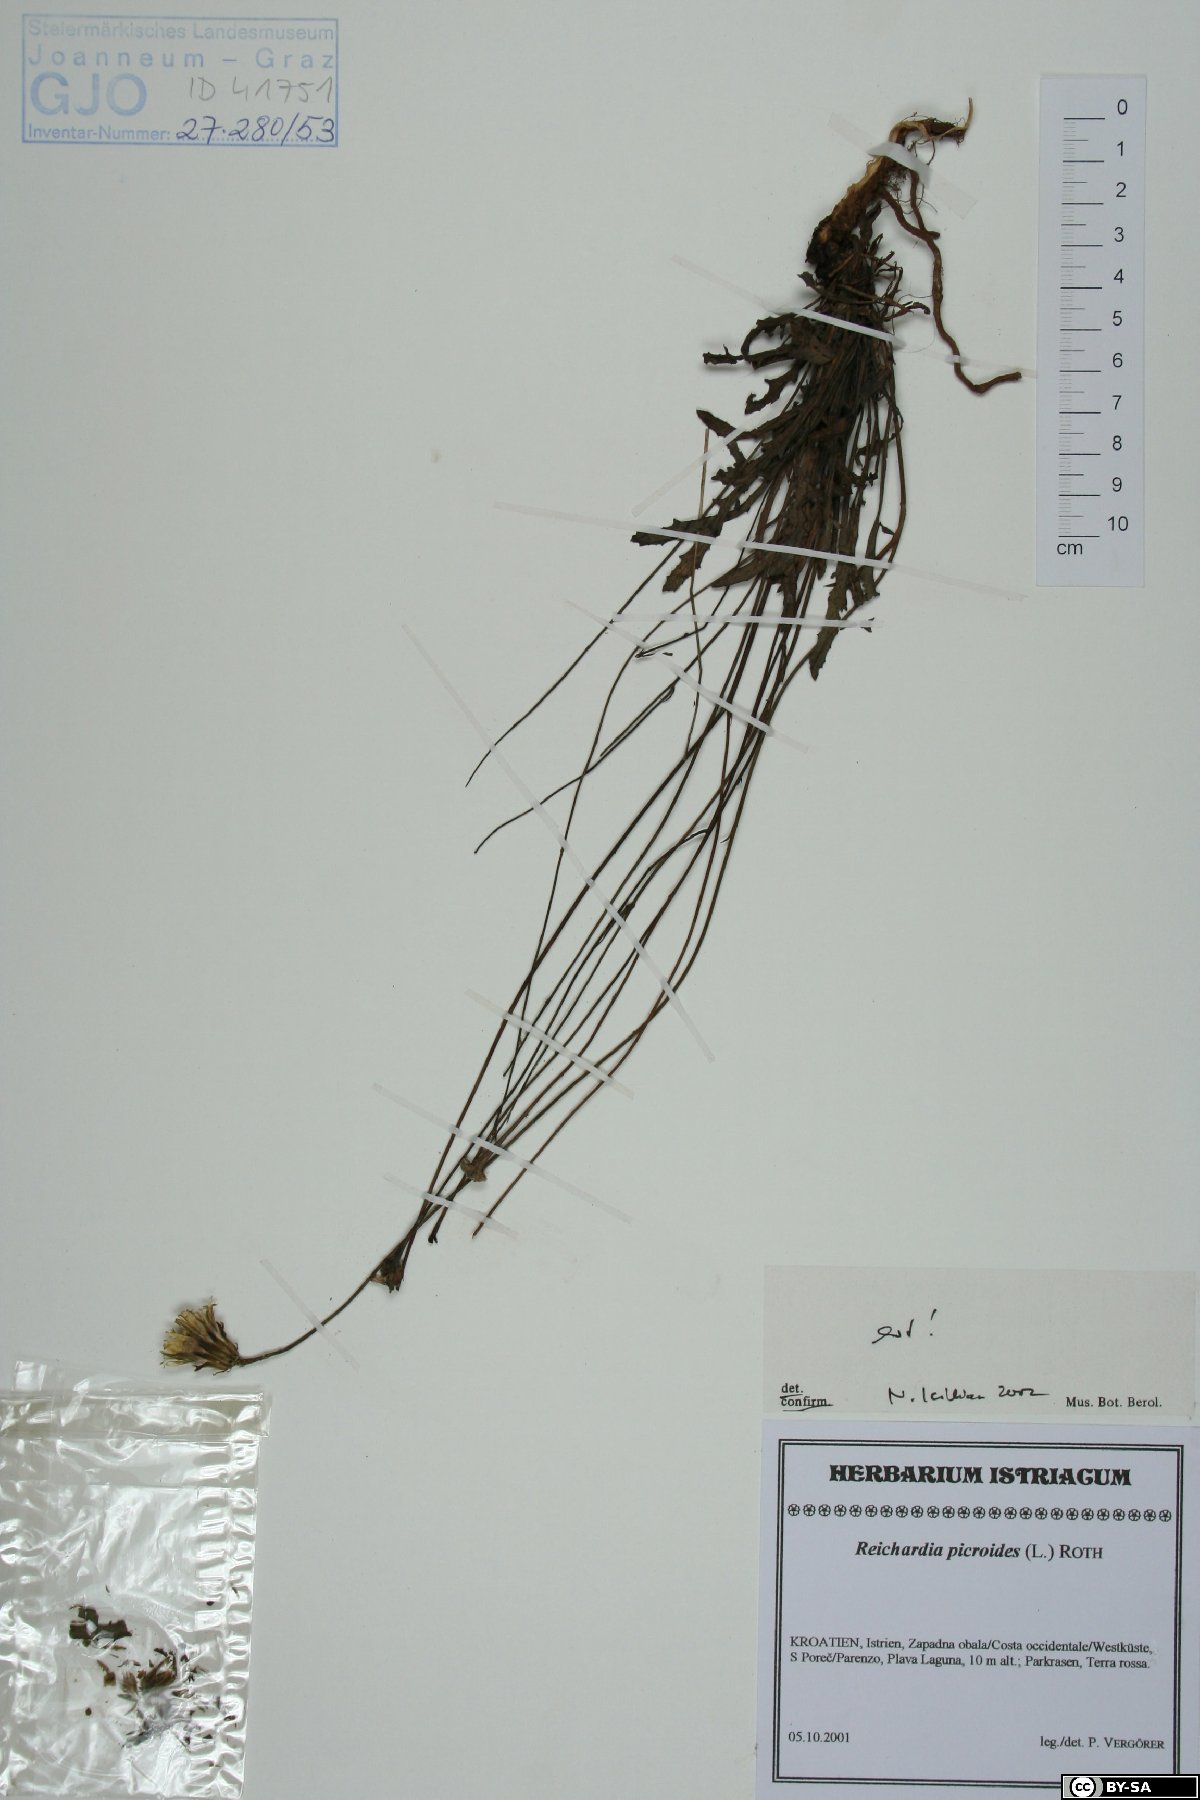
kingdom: Plantae
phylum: Tracheophyta
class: Magnoliopsida
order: Asterales
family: Asteraceae
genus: Reichardia
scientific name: Reichardia picroides
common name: Common brighteyes
